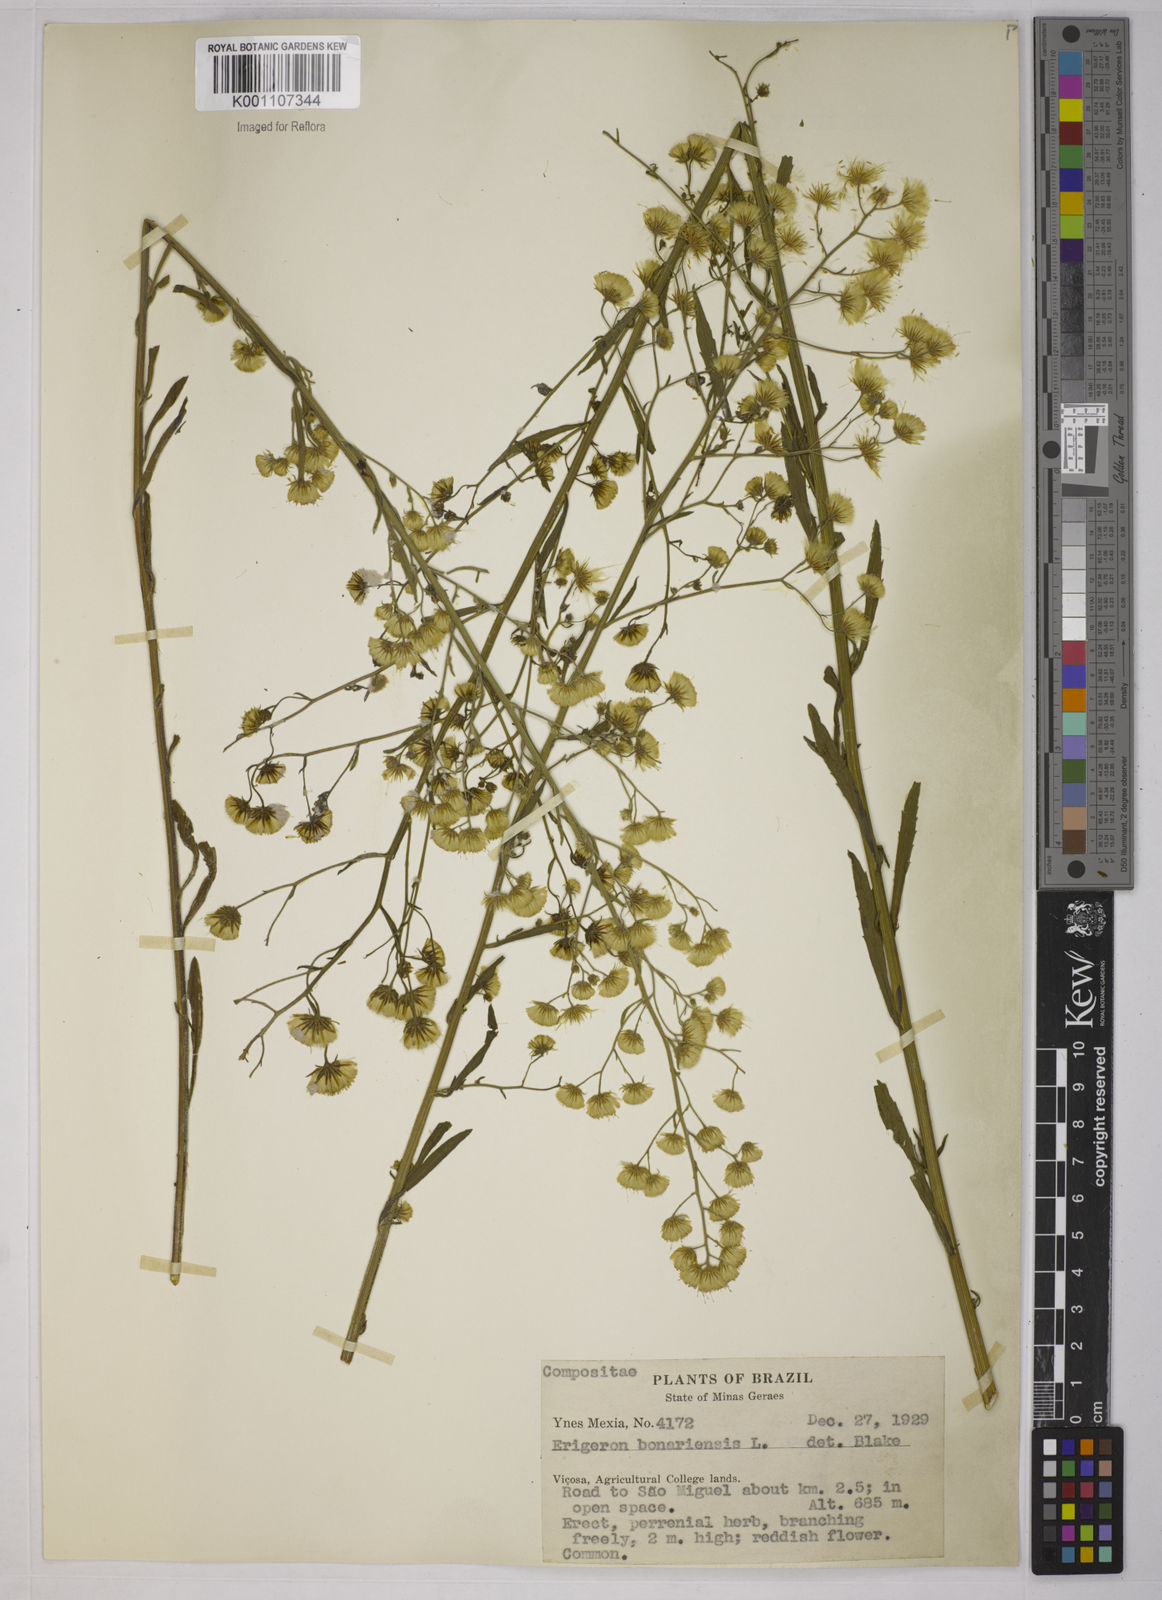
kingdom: Plantae
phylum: Tracheophyta
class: Magnoliopsida
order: Asterales
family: Asteraceae
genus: Erigeron
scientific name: Erigeron floribundus
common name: Bilbao fleabane
